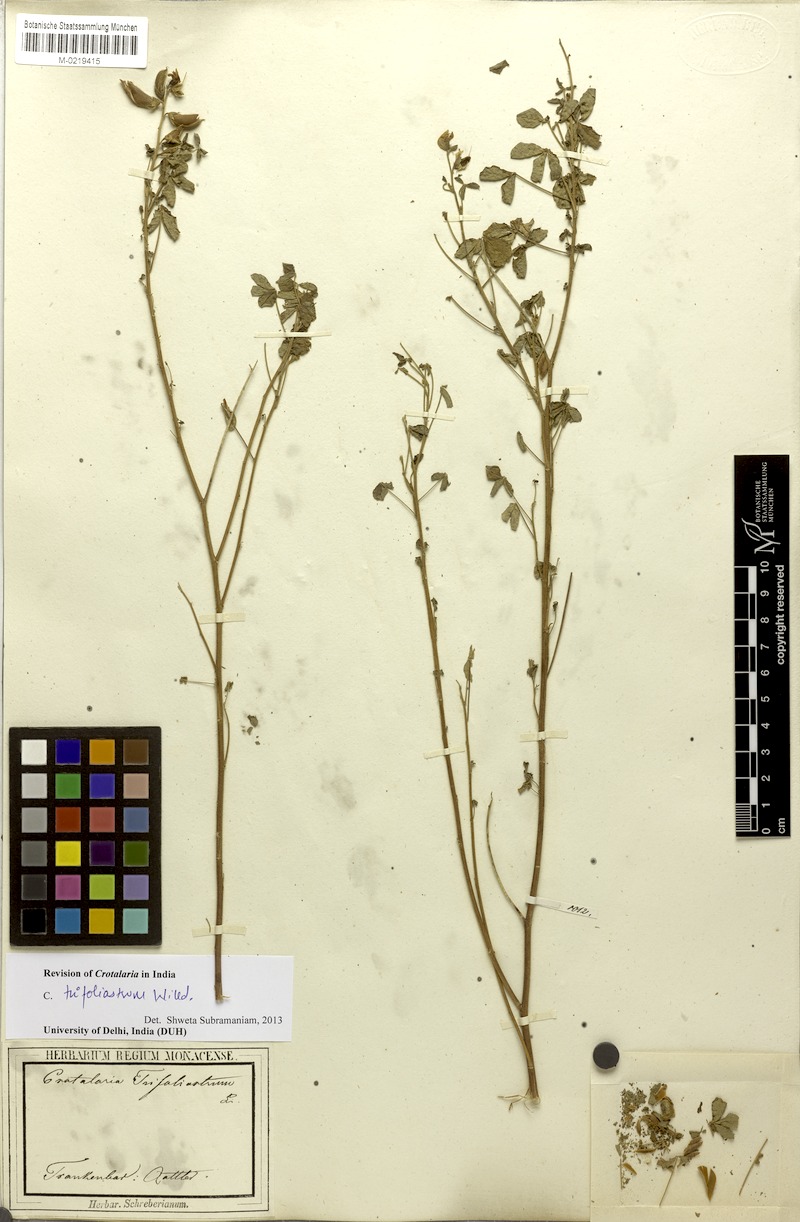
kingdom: Plantae
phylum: Tracheophyta
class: Magnoliopsida
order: Fabales
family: Fabaceae
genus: Crotalaria
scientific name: Crotalaria trifoliastrum
